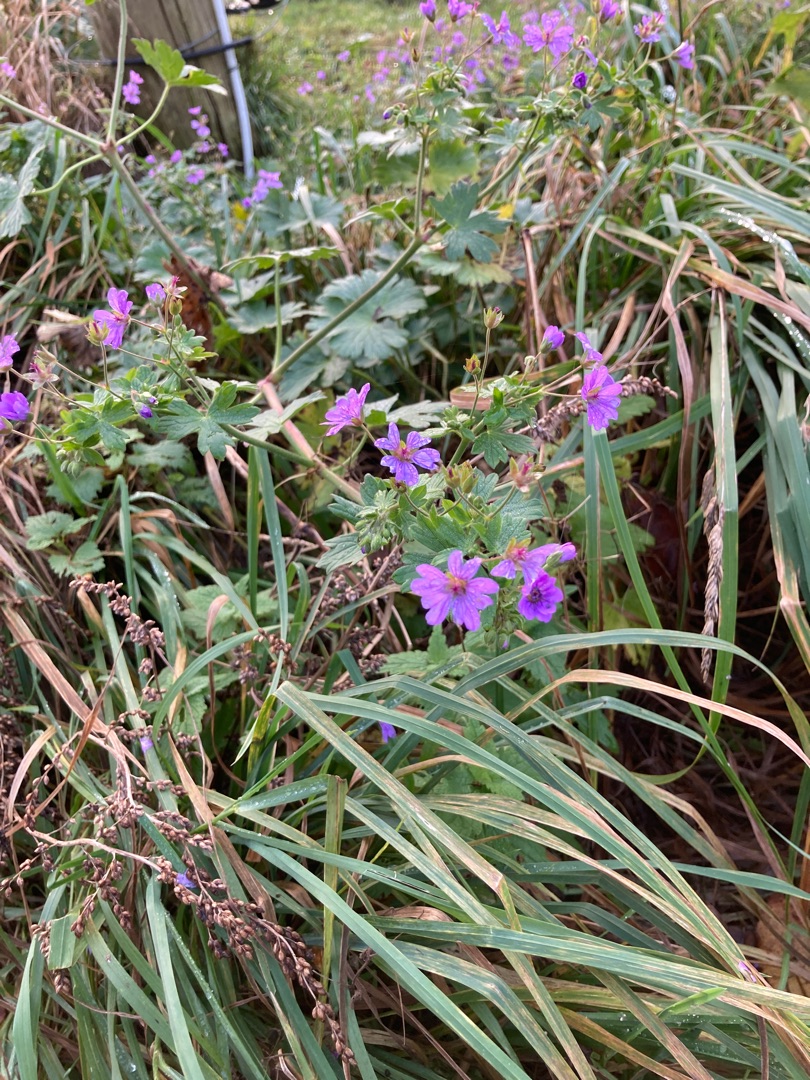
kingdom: Plantae
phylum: Tracheophyta
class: Magnoliopsida
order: Geraniales
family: Geraniaceae
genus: Geranium
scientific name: Geranium pyrenaicum
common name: Pyrenæisk storkenæb
